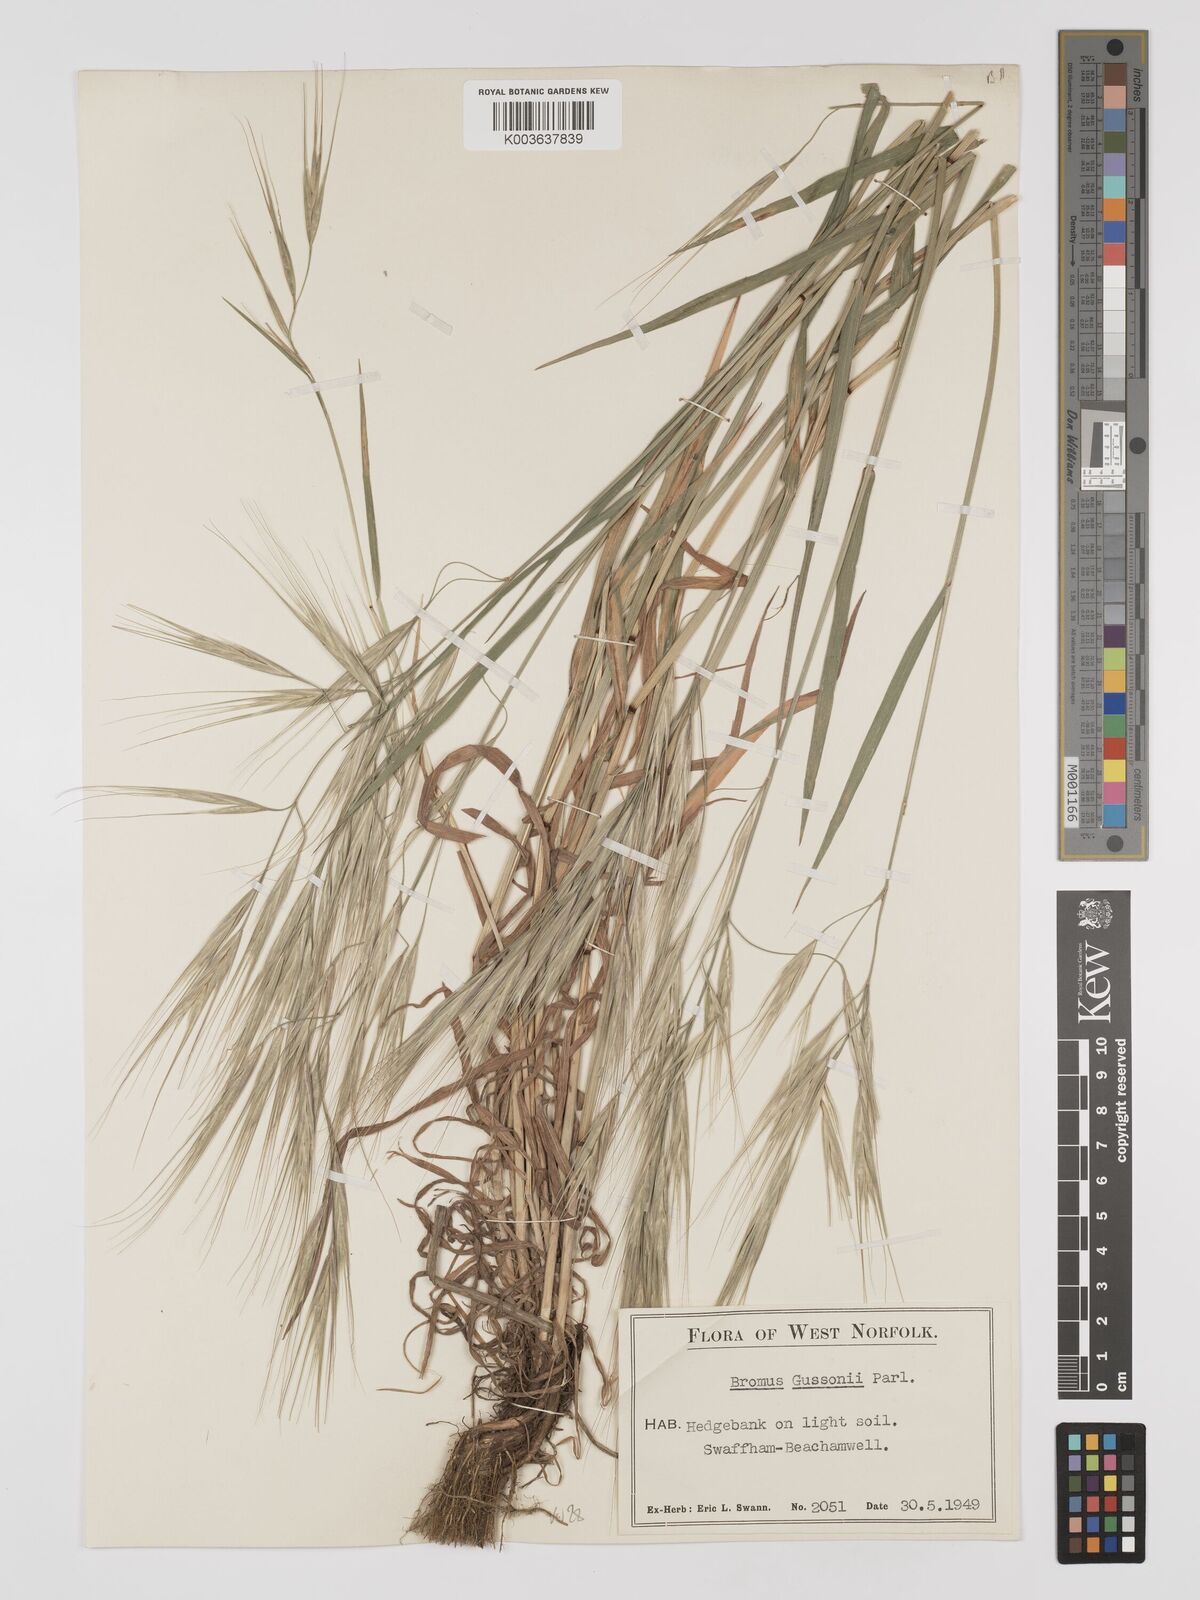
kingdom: Plantae
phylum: Tracheophyta
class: Liliopsida
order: Poales
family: Poaceae
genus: Bromus
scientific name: Bromus
